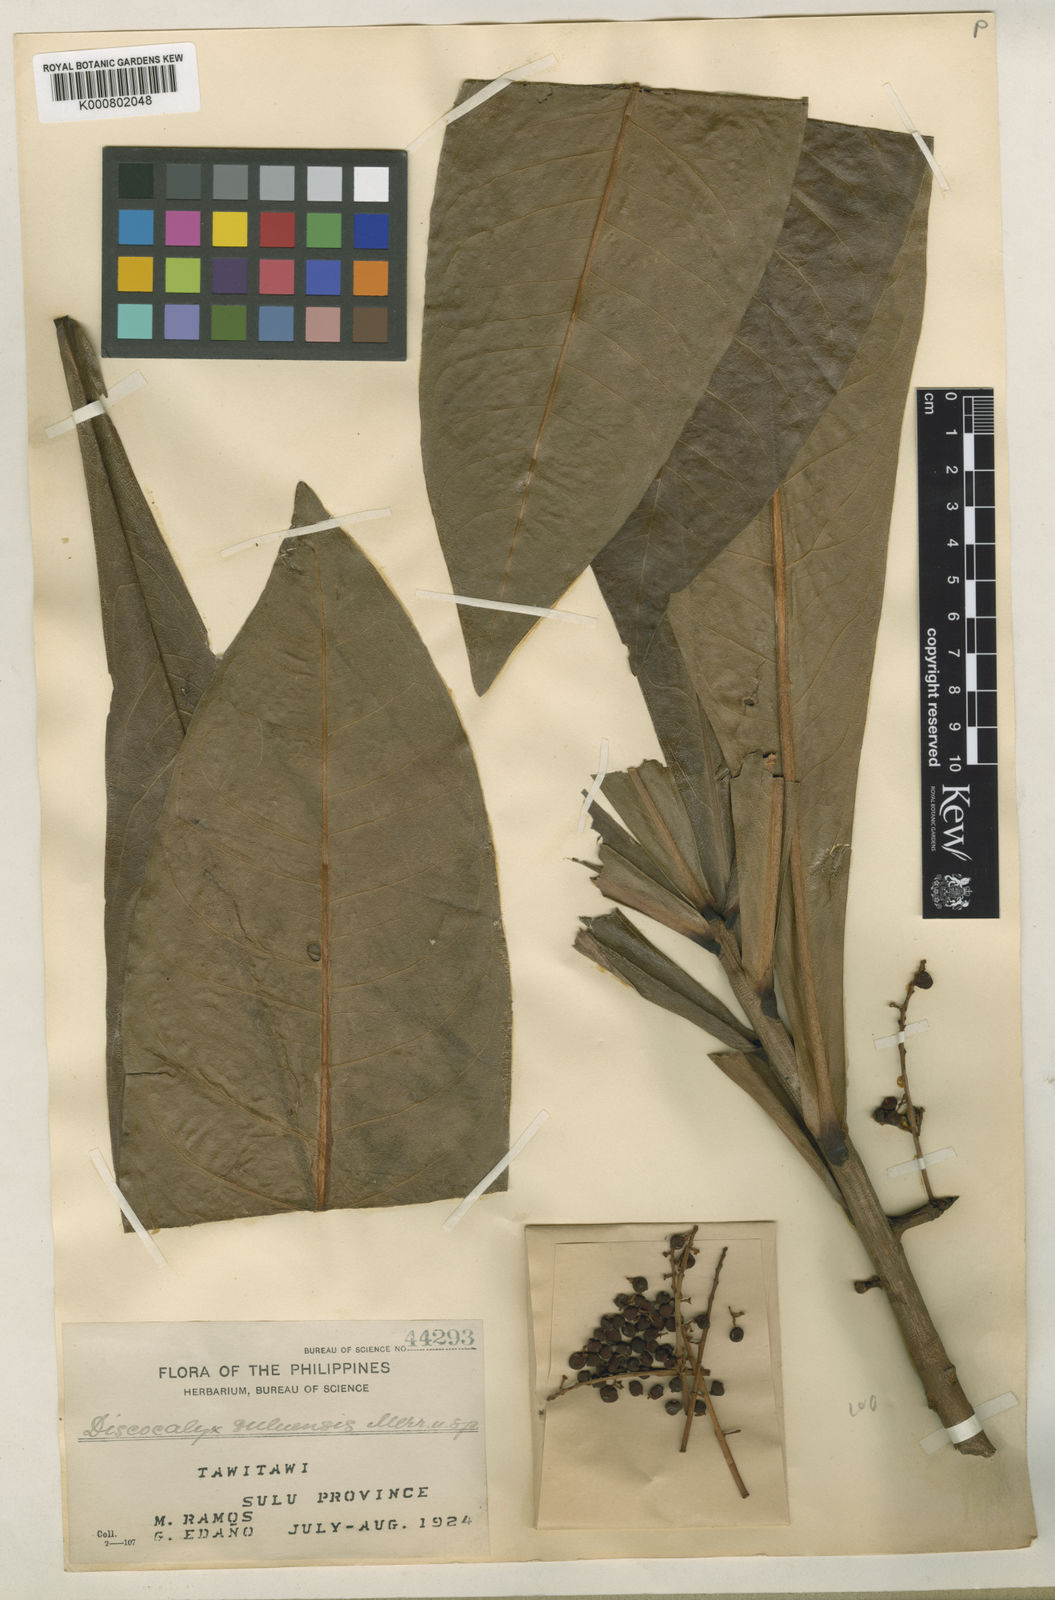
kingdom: Plantae
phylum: Tracheophyta
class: Magnoliopsida
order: Ericales
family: Primulaceae
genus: Discocalyx
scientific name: Discocalyx suluensis
